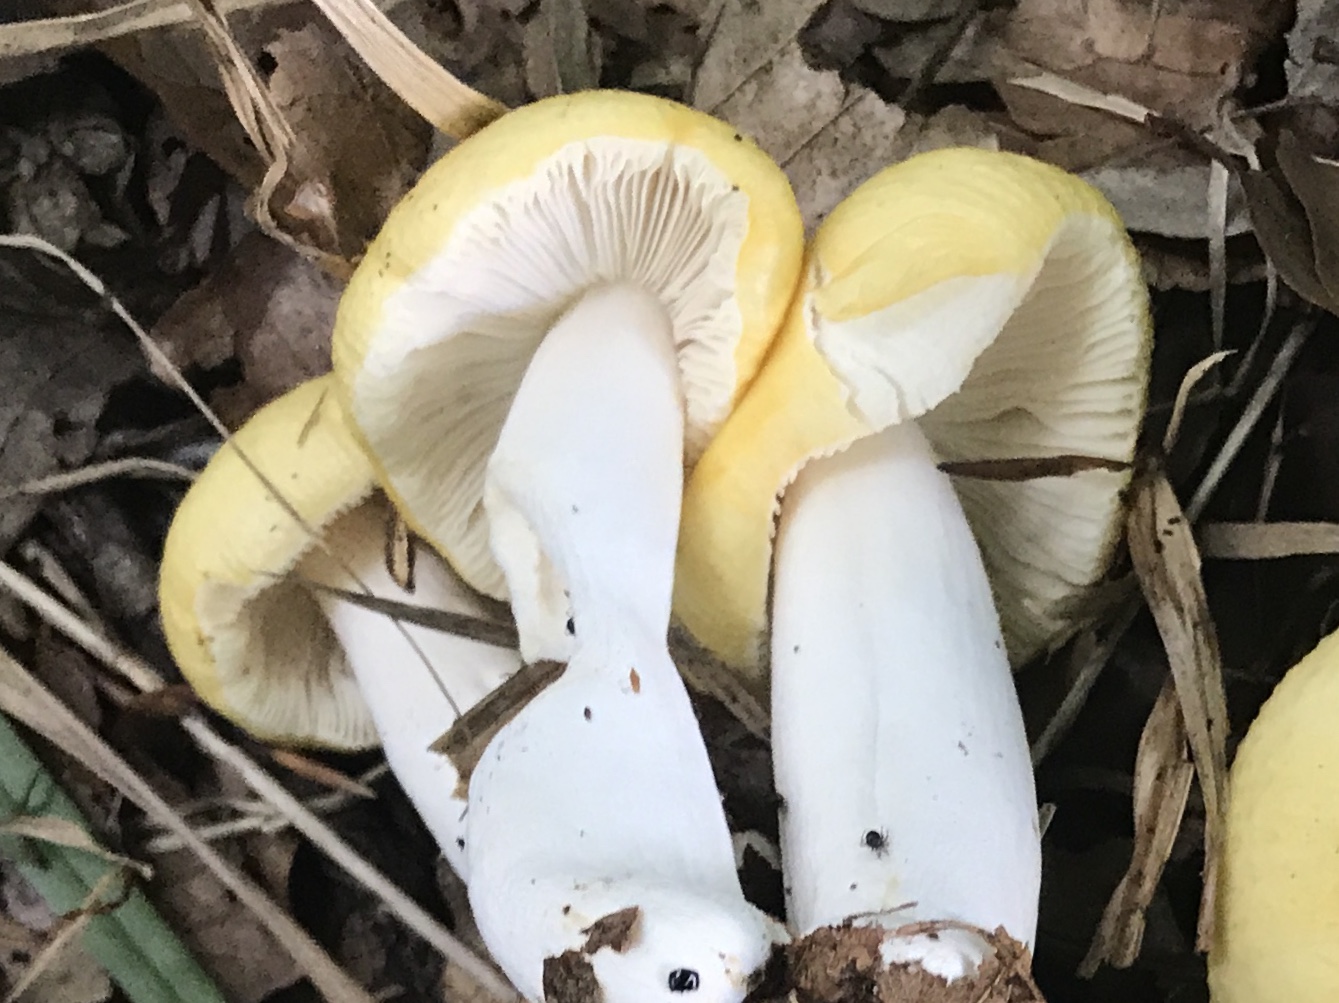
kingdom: Fungi
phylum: Basidiomycota
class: Agaricomycetes
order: Russulales
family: Russulaceae
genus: Russula
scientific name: Russula ochroleuca
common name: okkergul skørhat
